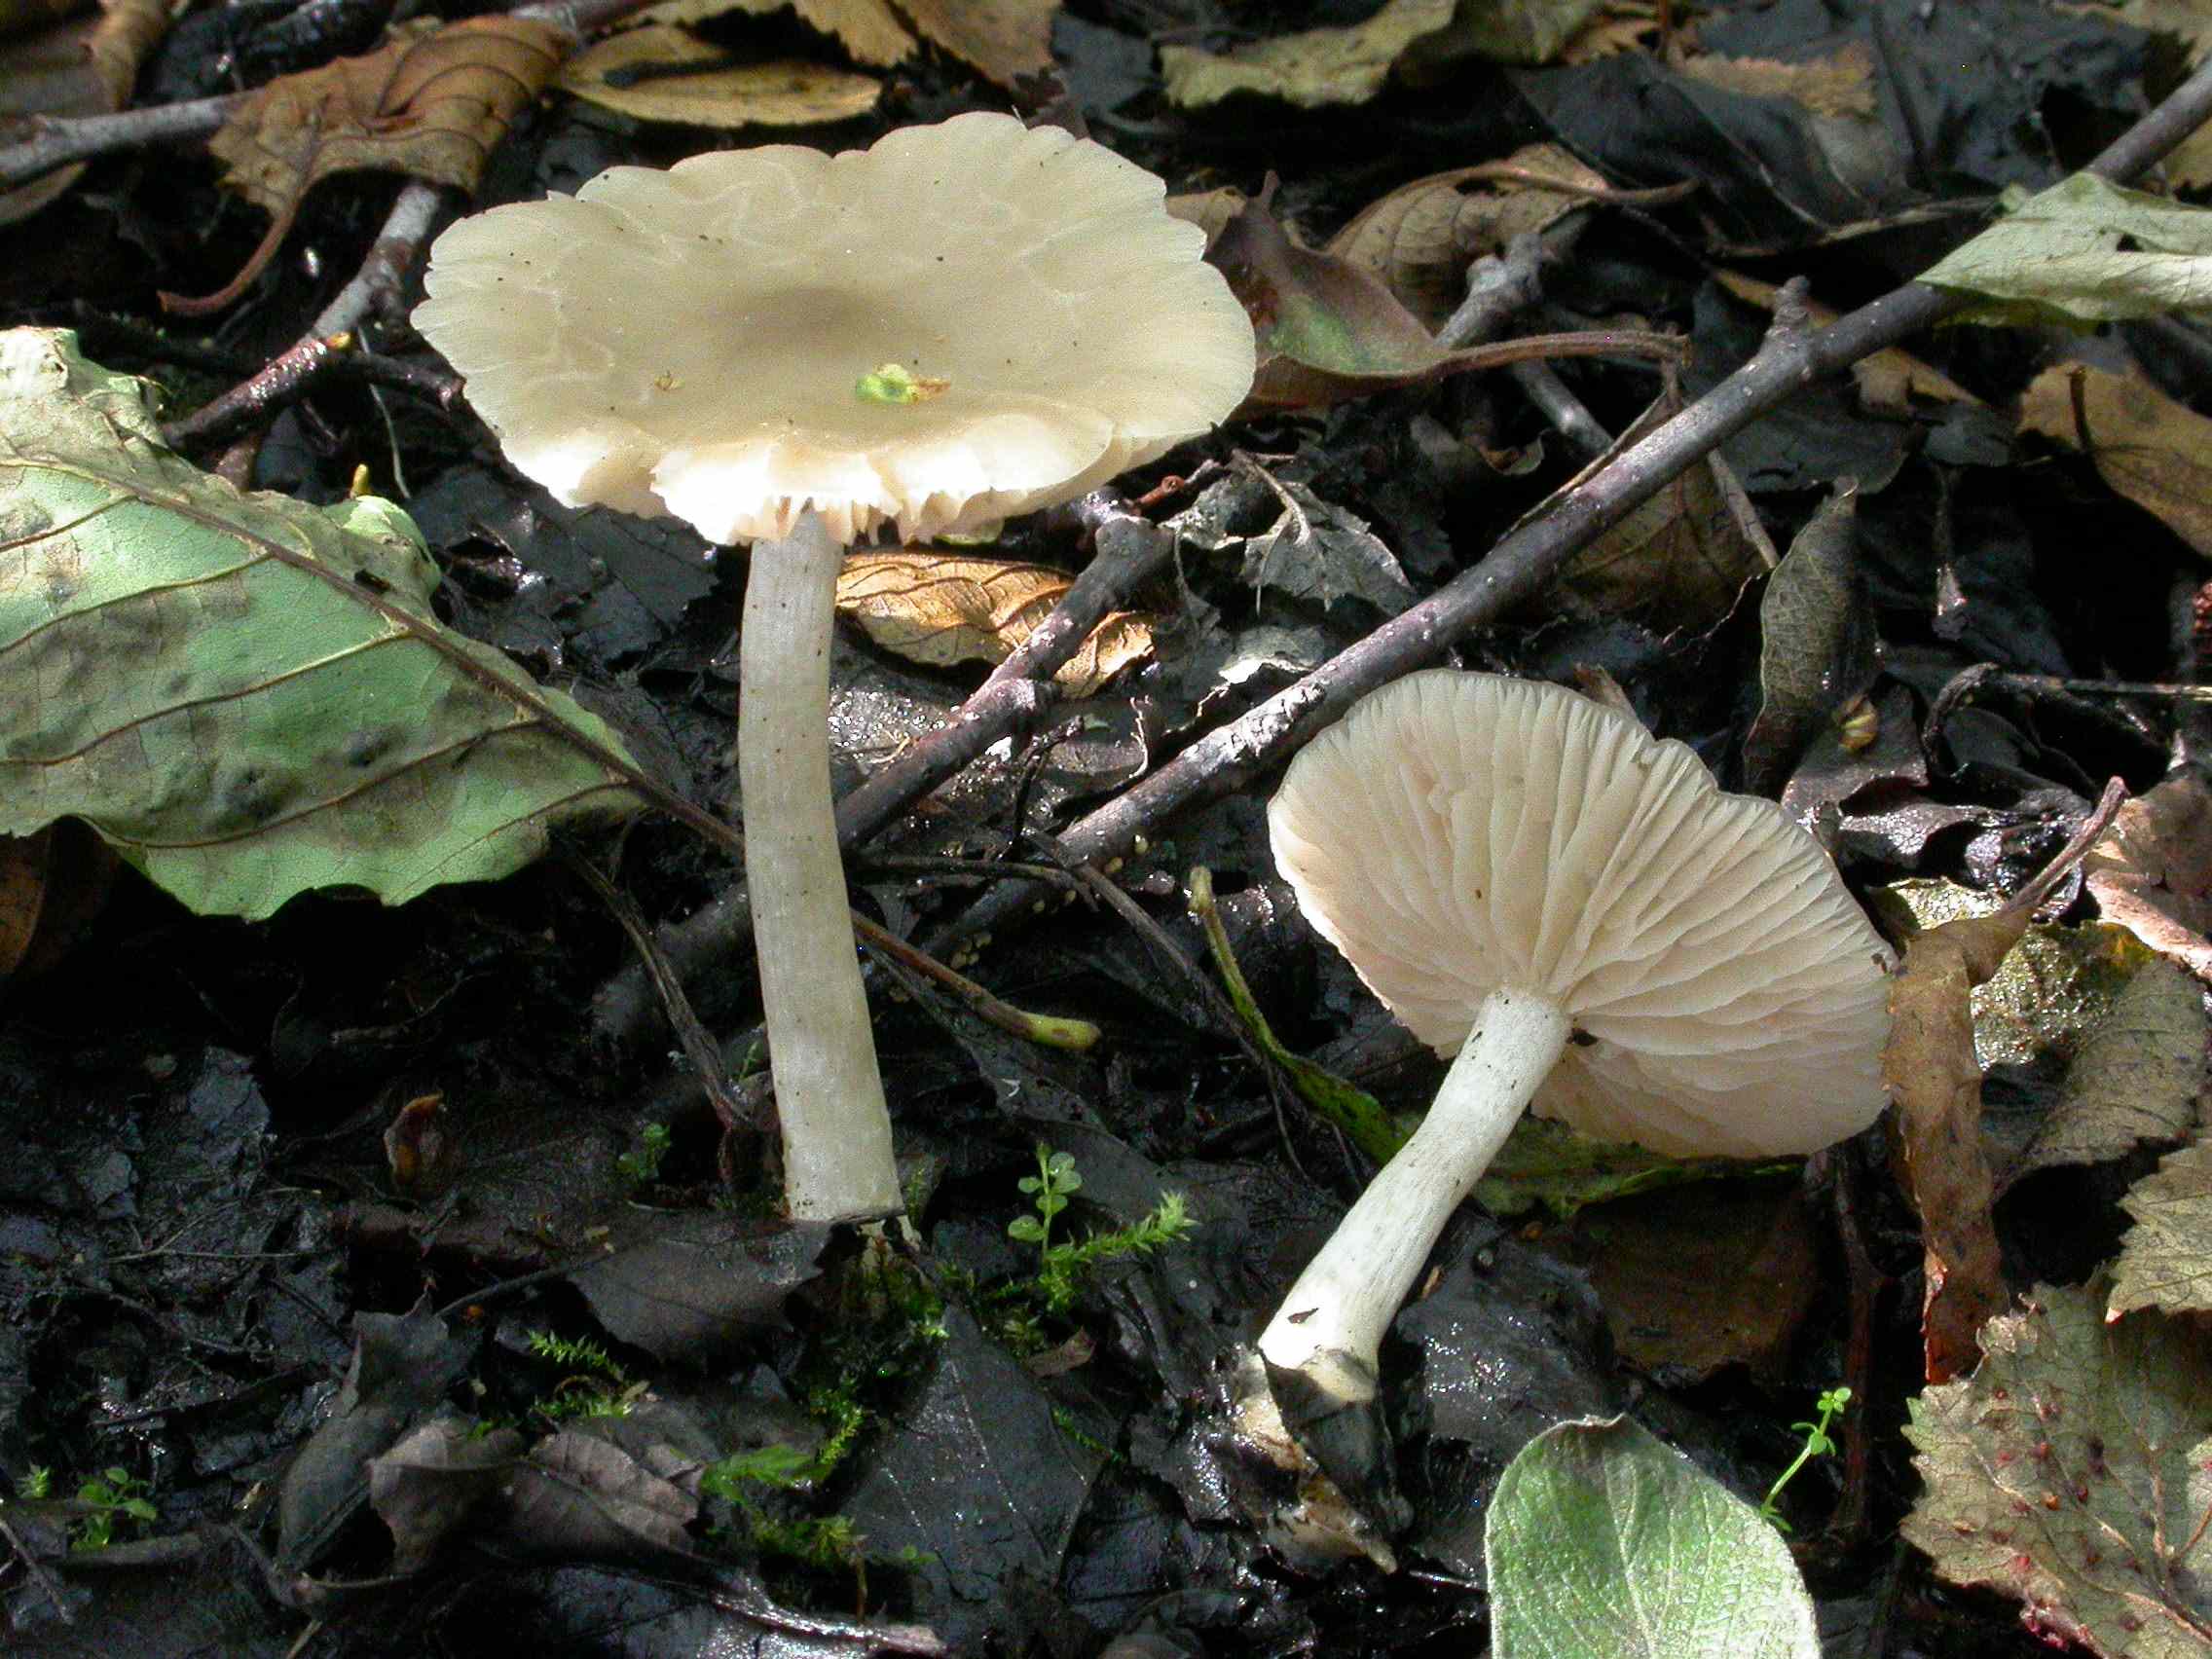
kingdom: Fungi
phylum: Basidiomycota
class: Agaricomycetes
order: Agaricales
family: Entolomataceae
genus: Entoloma
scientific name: Entoloma sericatum
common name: rank rødblad
